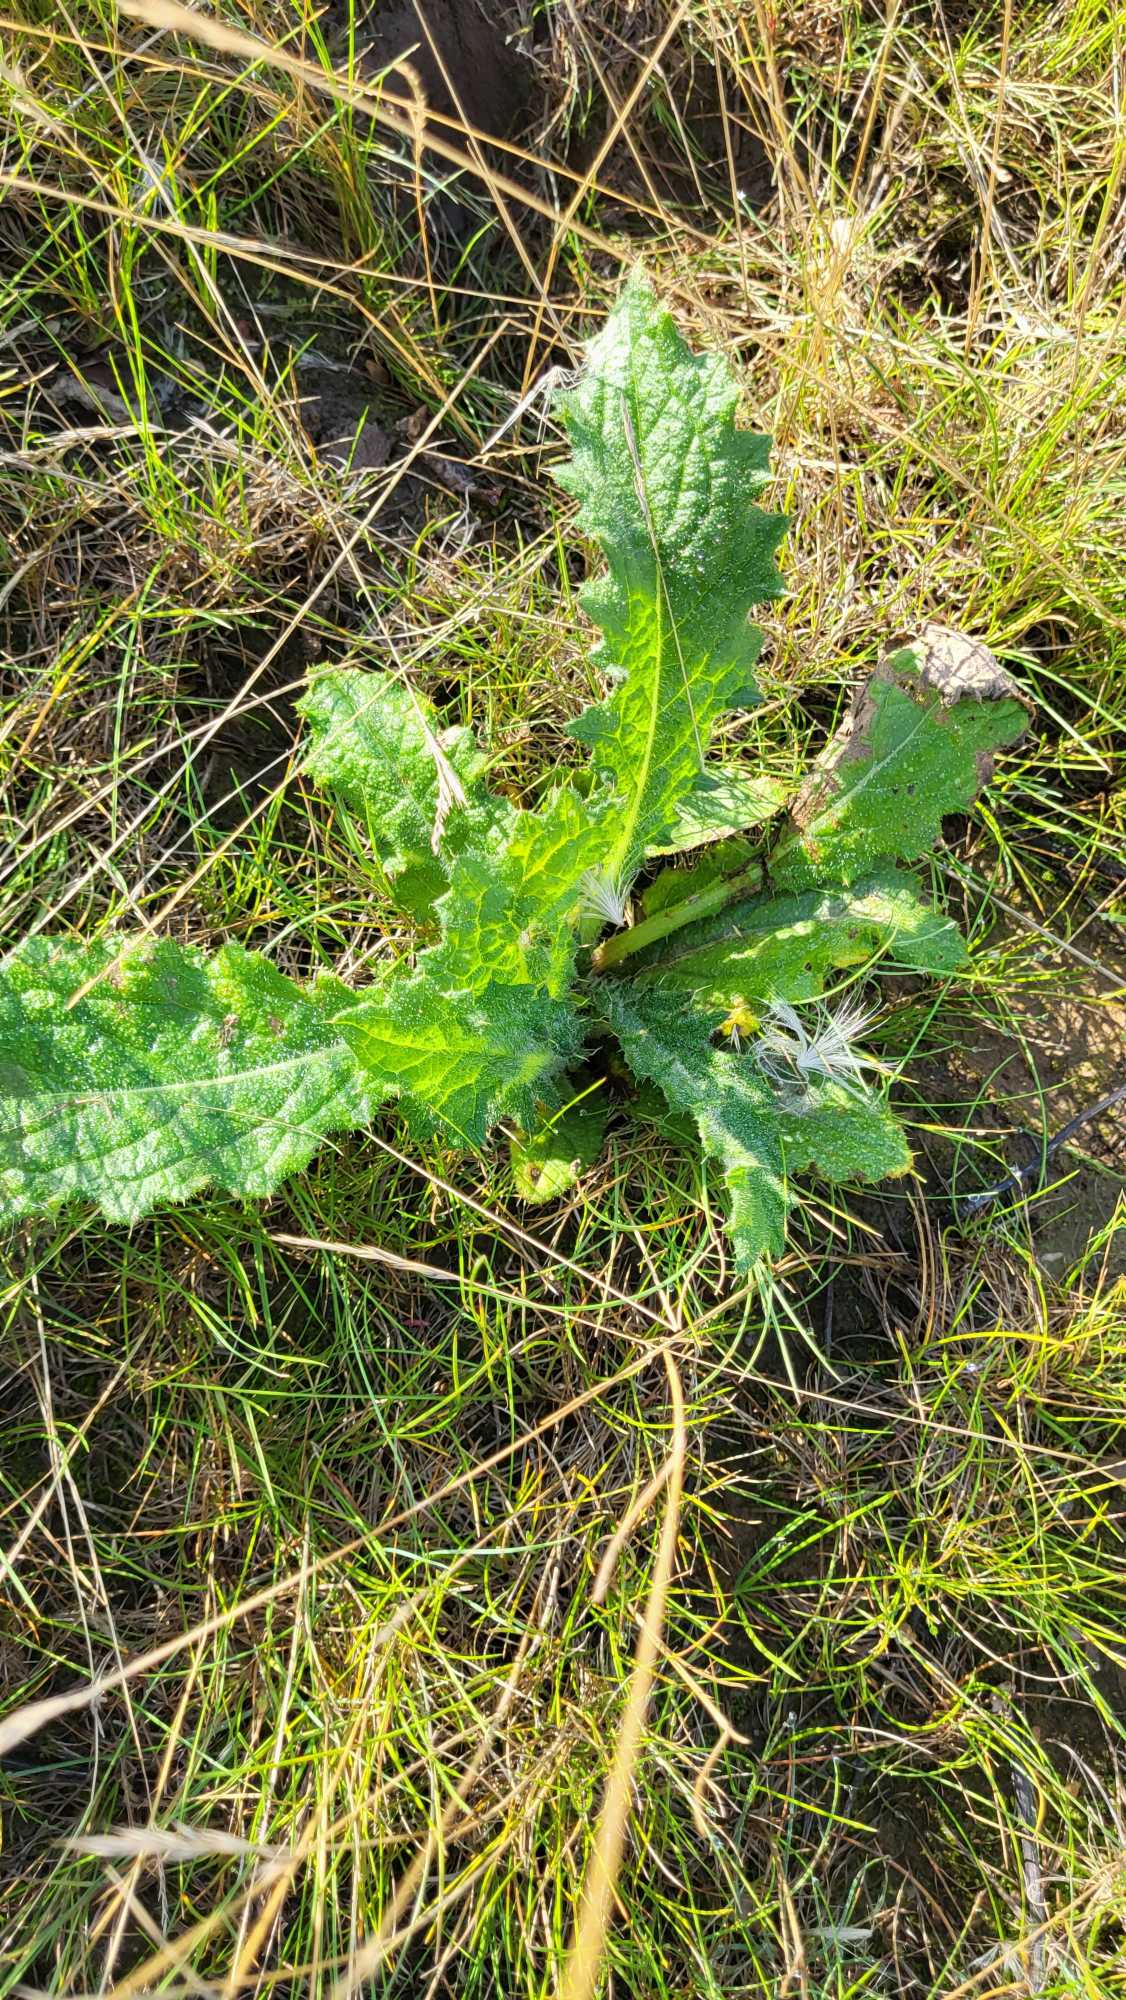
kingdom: Plantae
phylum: Tracheophyta
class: Magnoliopsida
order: Asterales
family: Asteraceae
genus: Cirsium
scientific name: Cirsium vulgare
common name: Horse-tidsel
